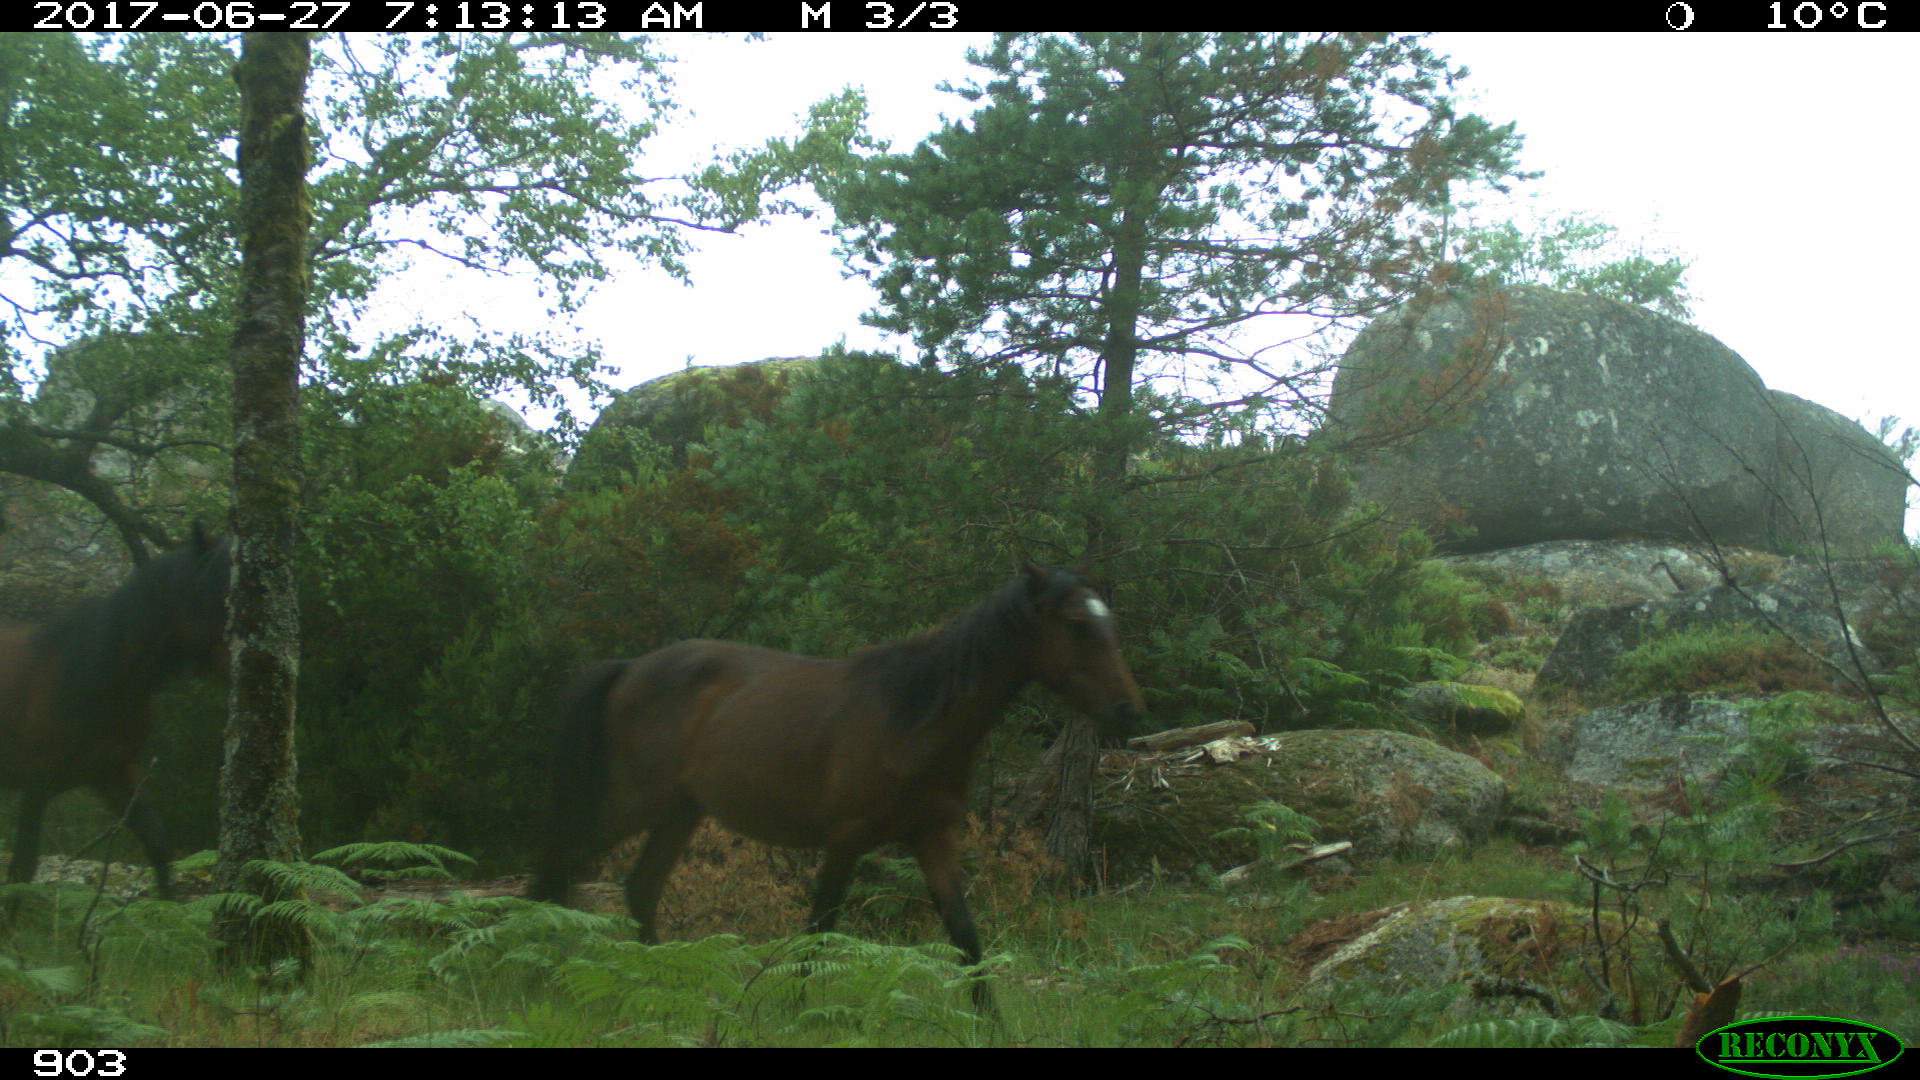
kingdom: Animalia
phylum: Chordata
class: Mammalia
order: Perissodactyla
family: Equidae
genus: Equus
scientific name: Equus caballus
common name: Horse
